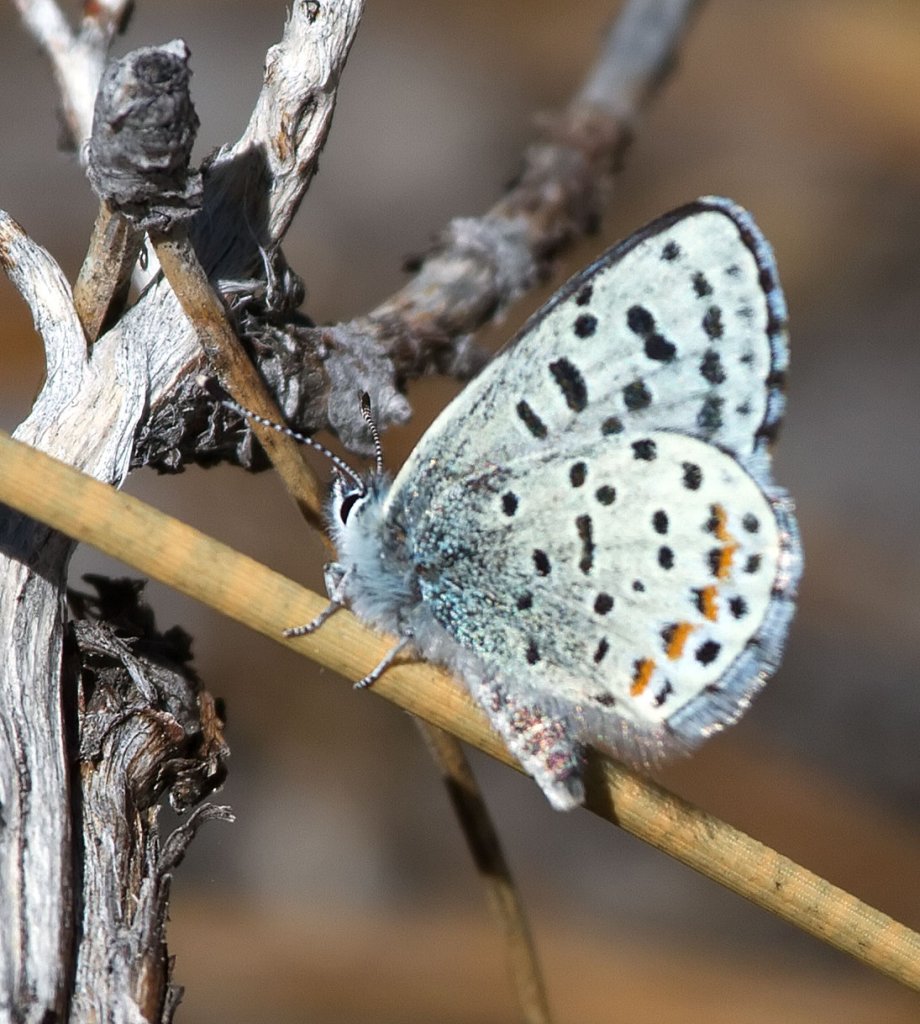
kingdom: Animalia
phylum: Arthropoda
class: Insecta
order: Lepidoptera
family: Lycaenidae
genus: Euphilotes
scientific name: Euphilotes
